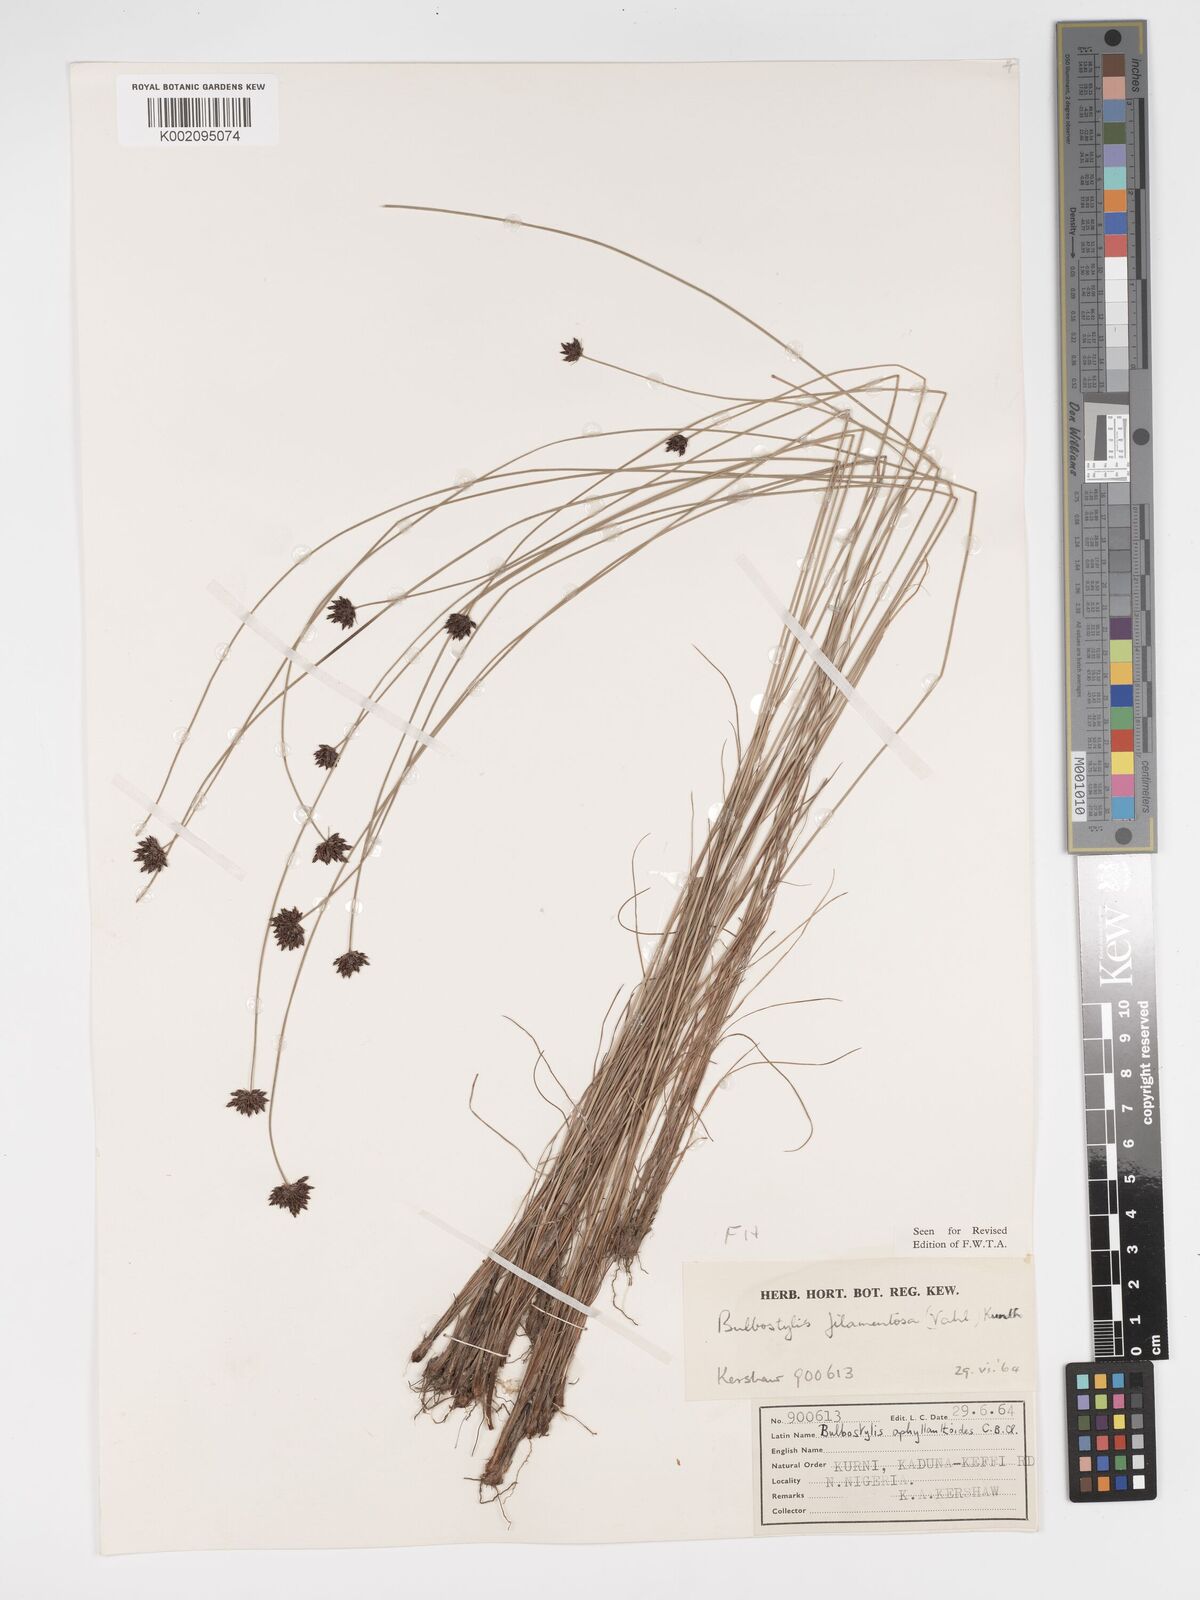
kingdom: Plantae
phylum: Tracheophyta
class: Liliopsida
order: Poales
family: Cyperaceae
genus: Bulbostylis
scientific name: Bulbostylis scabricaulis
